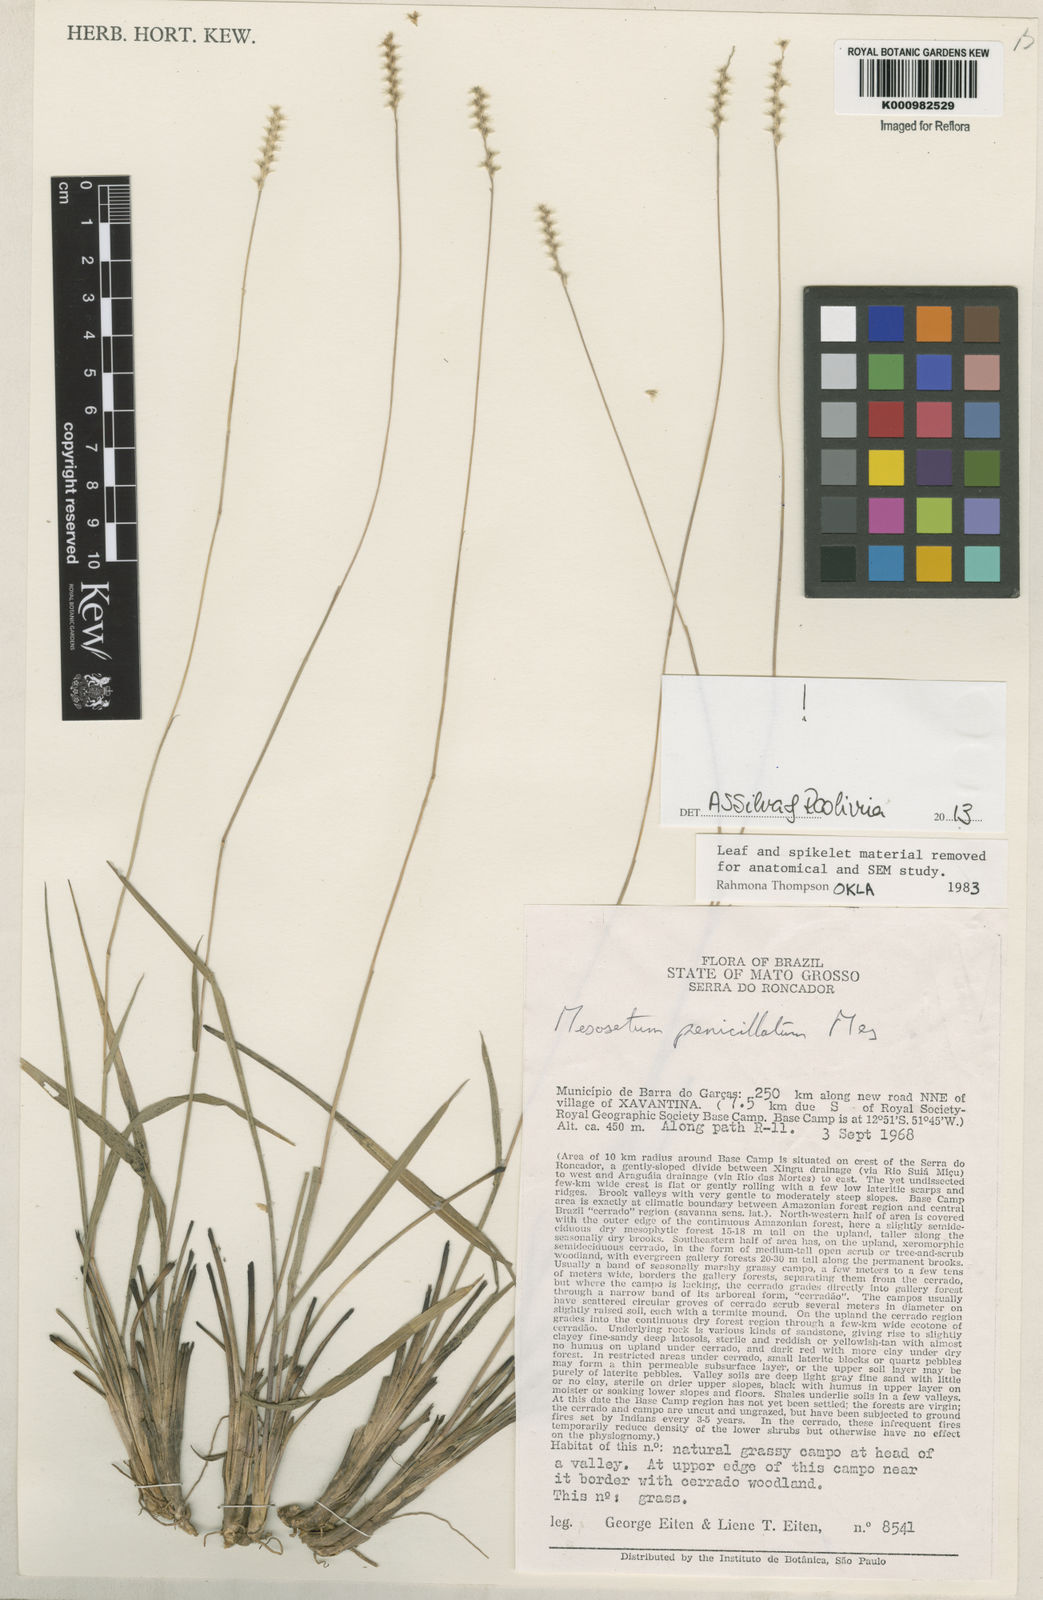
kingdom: Plantae
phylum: Tracheophyta
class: Liliopsida
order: Poales
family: Poaceae
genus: Mesosetum
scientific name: Mesosetum penicillatum
